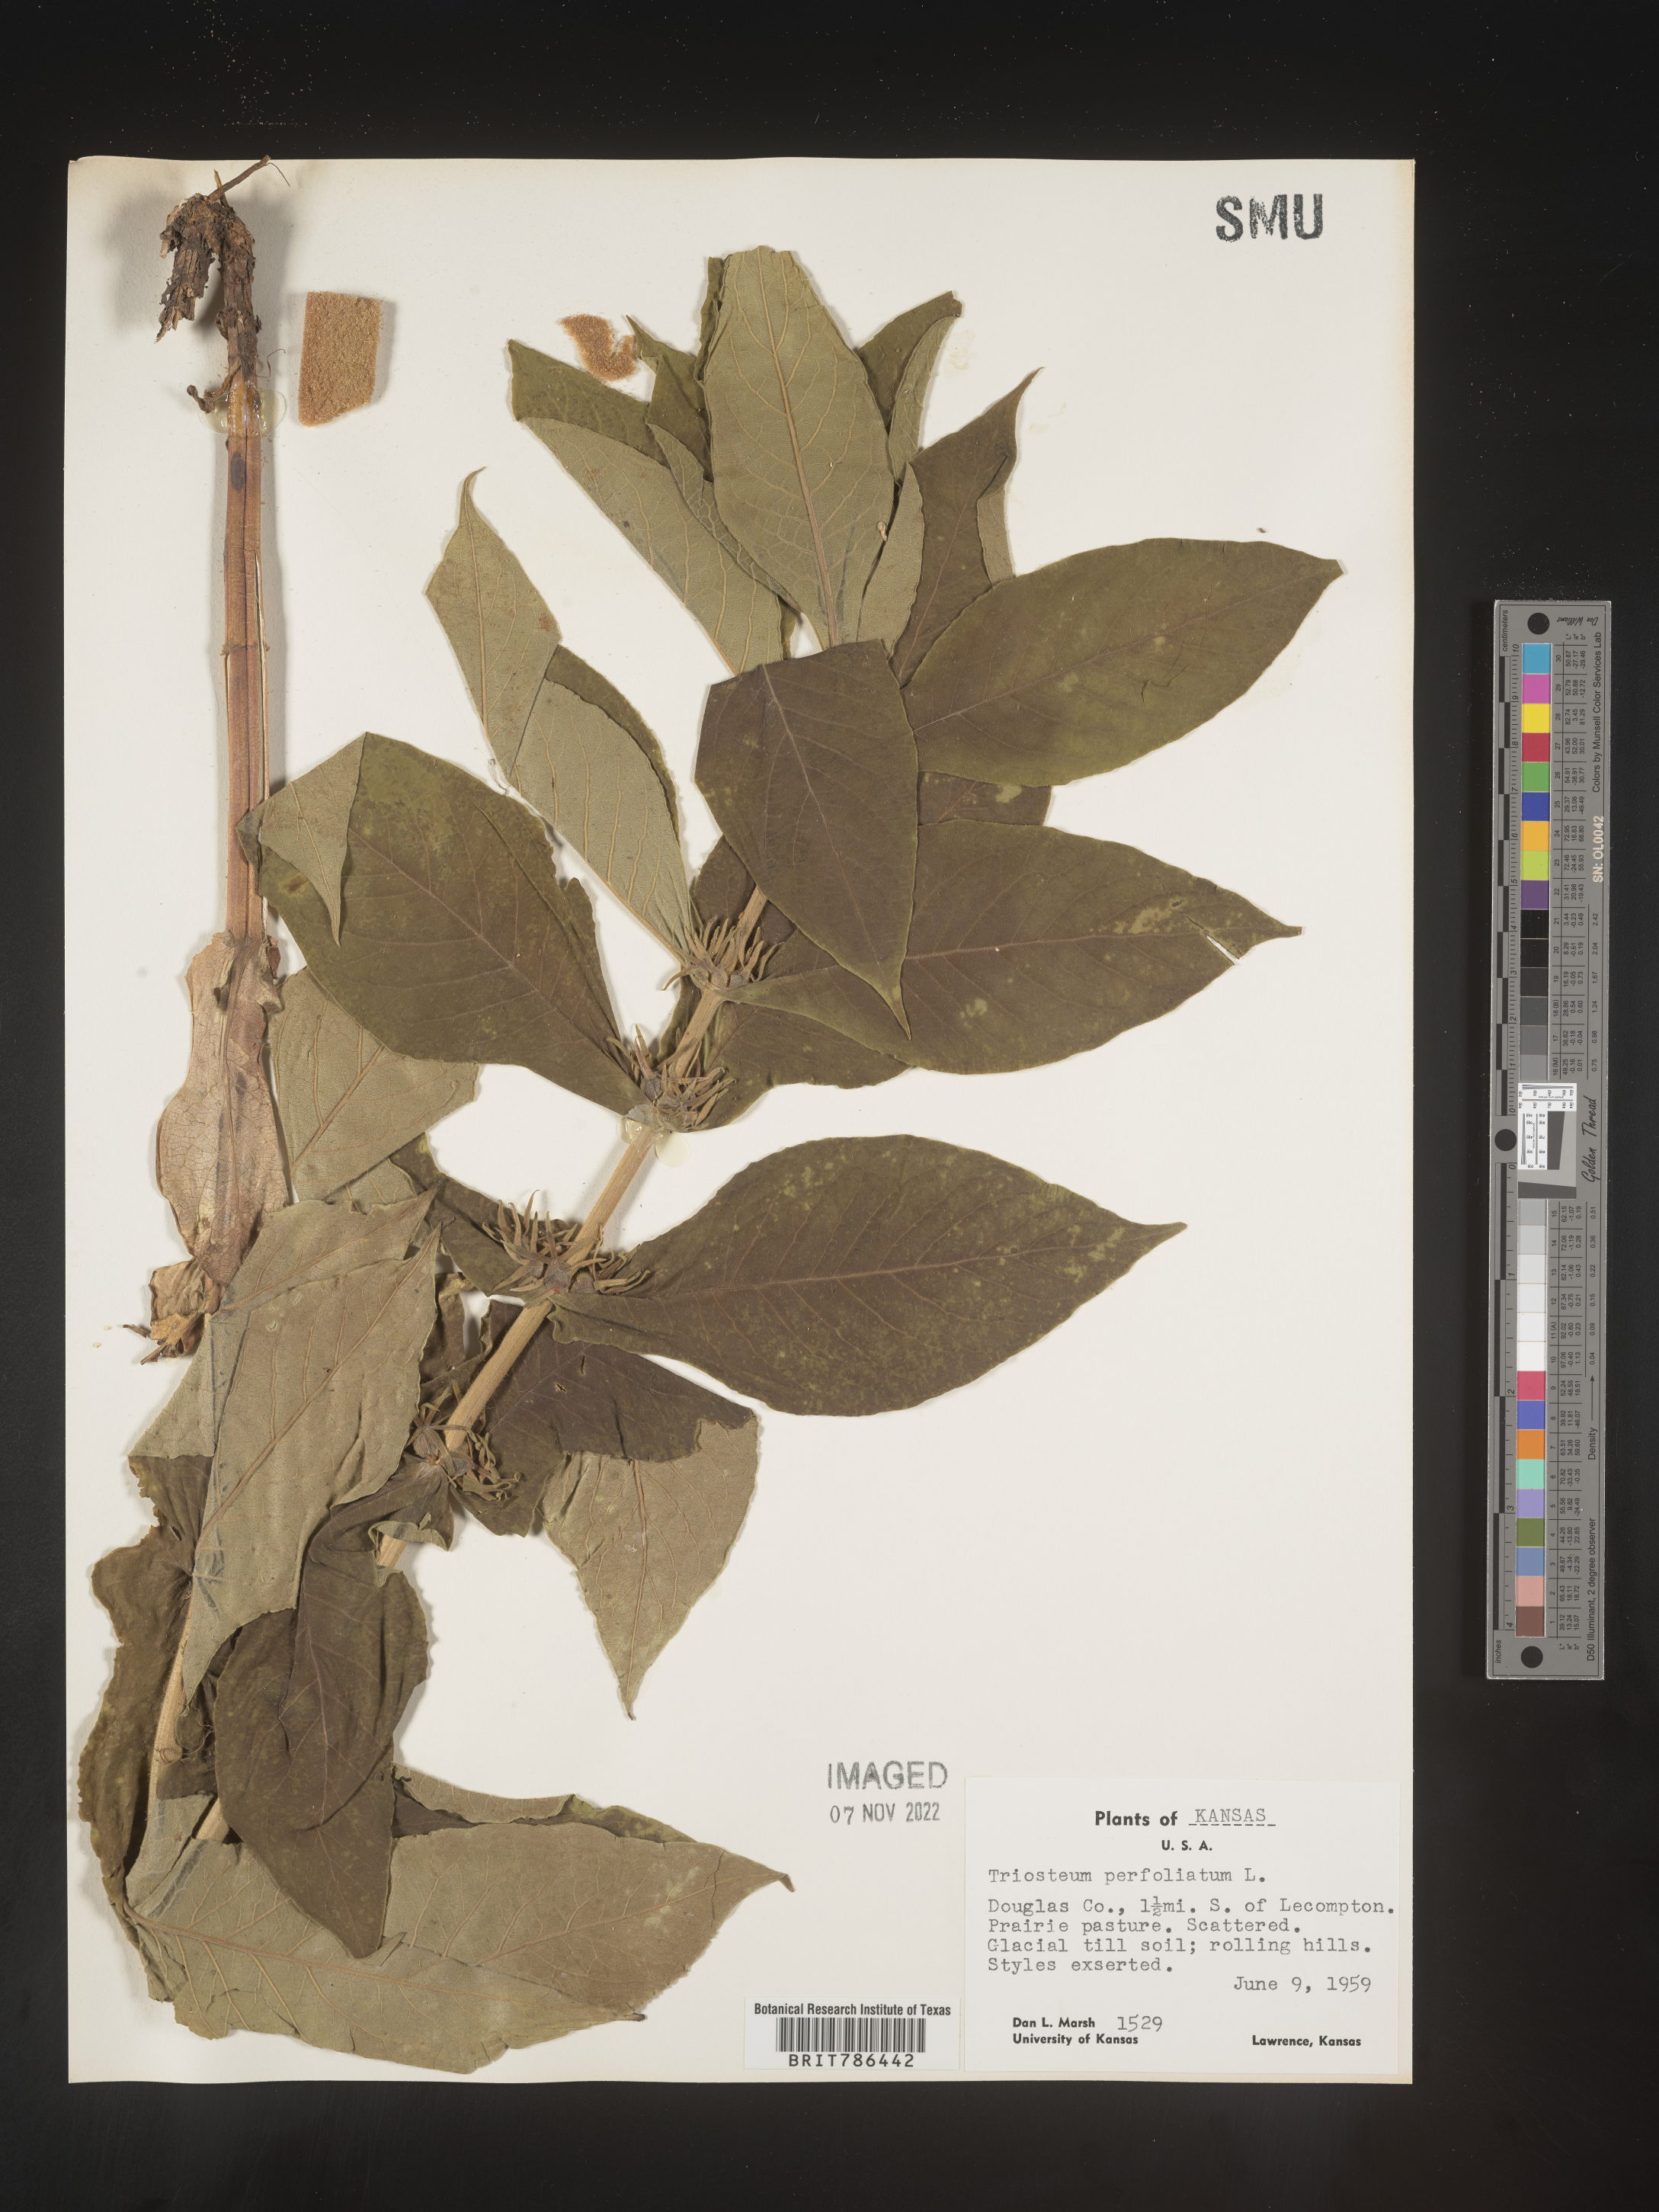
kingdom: Plantae
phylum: Tracheophyta
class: Magnoliopsida
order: Dipsacales
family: Caprifoliaceae
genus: Triosteum
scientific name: Triosteum perfoliatum
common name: Common horse-gentian
